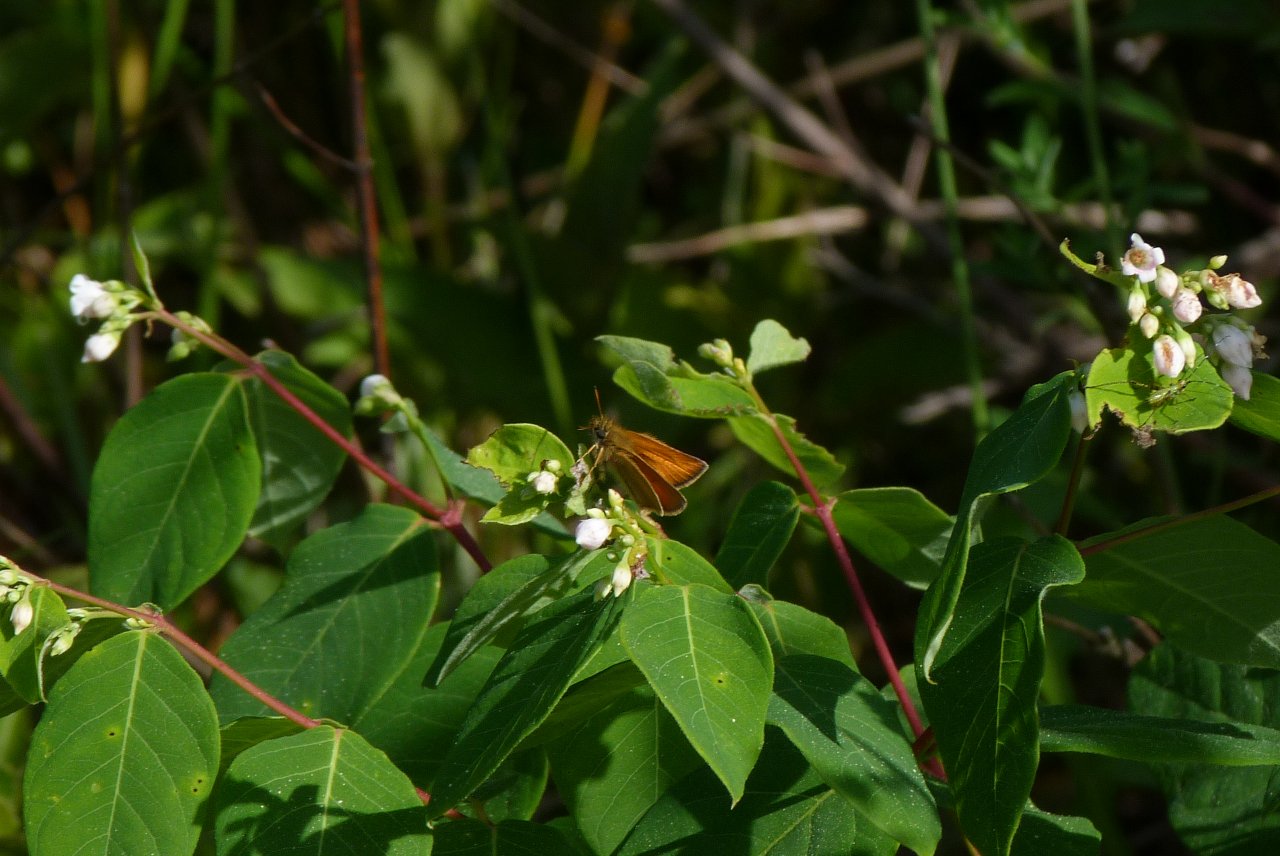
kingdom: Animalia
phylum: Arthropoda
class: Insecta
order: Lepidoptera
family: Hesperiidae
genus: Thymelicus
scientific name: Thymelicus lineola
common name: European Skipper
